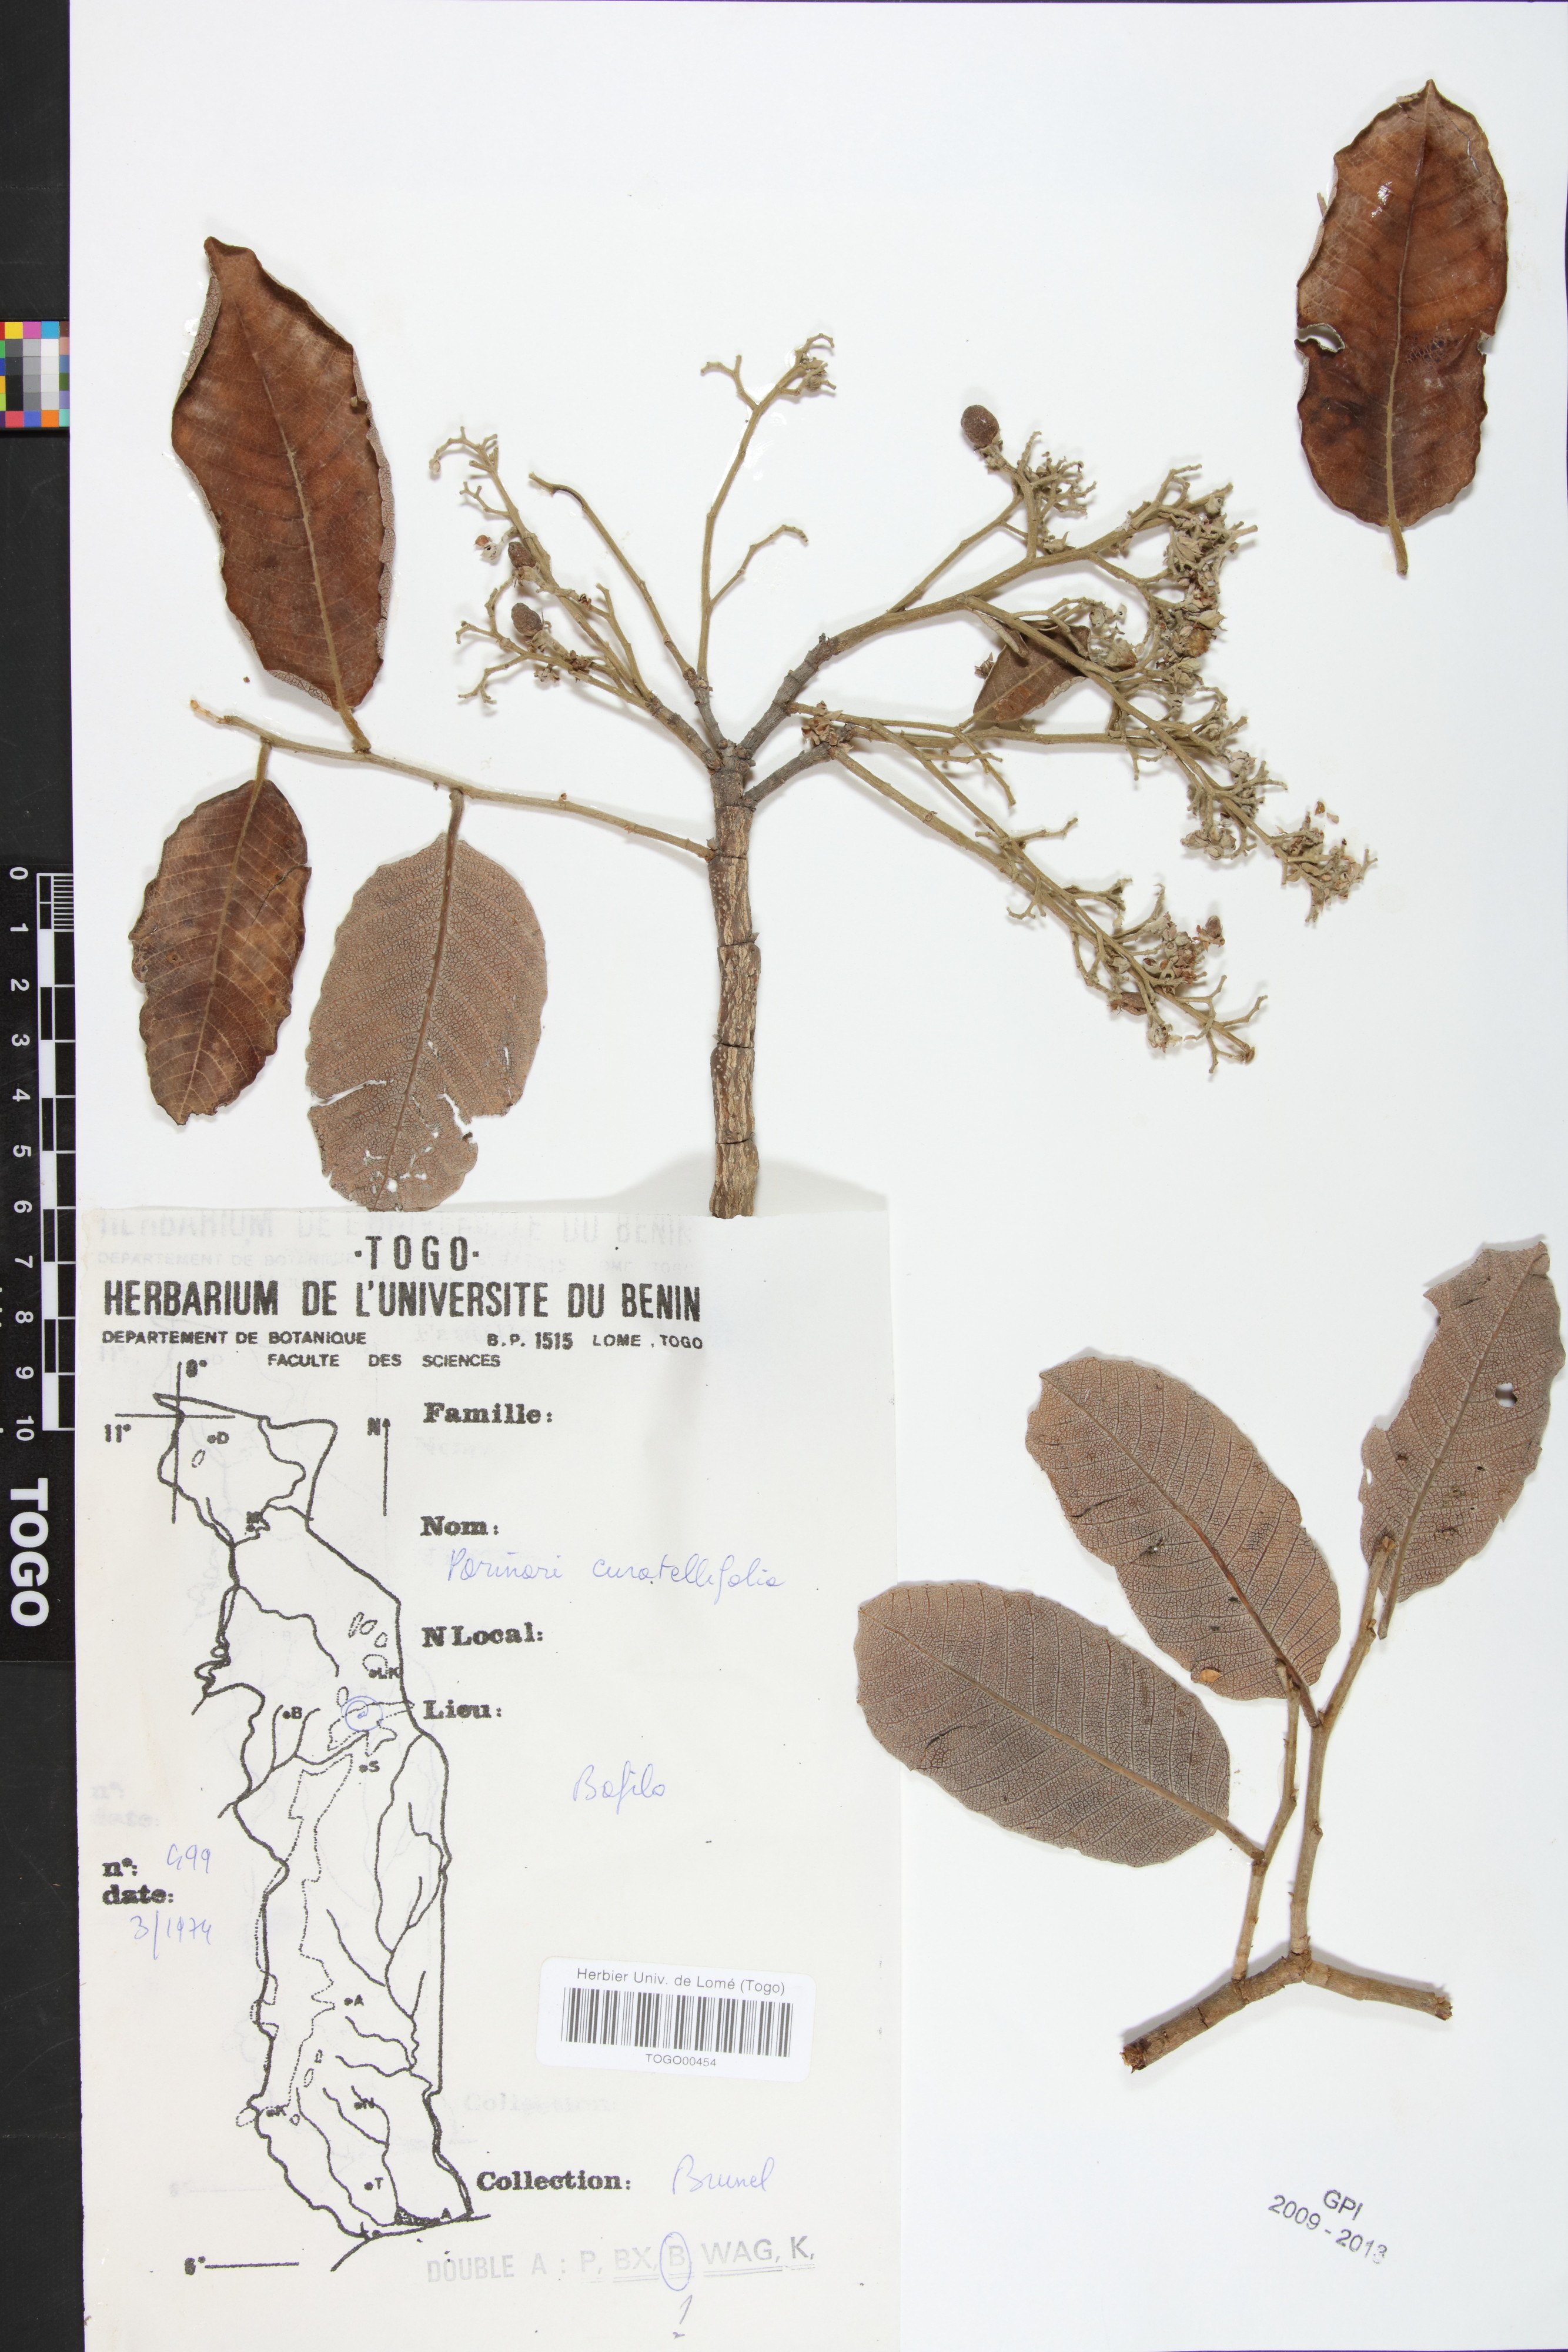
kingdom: Plantae
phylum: Tracheophyta
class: Magnoliopsida
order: Malpighiales
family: Chrysobalanaceae
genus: Parinari
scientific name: Parinari curatellifolia
